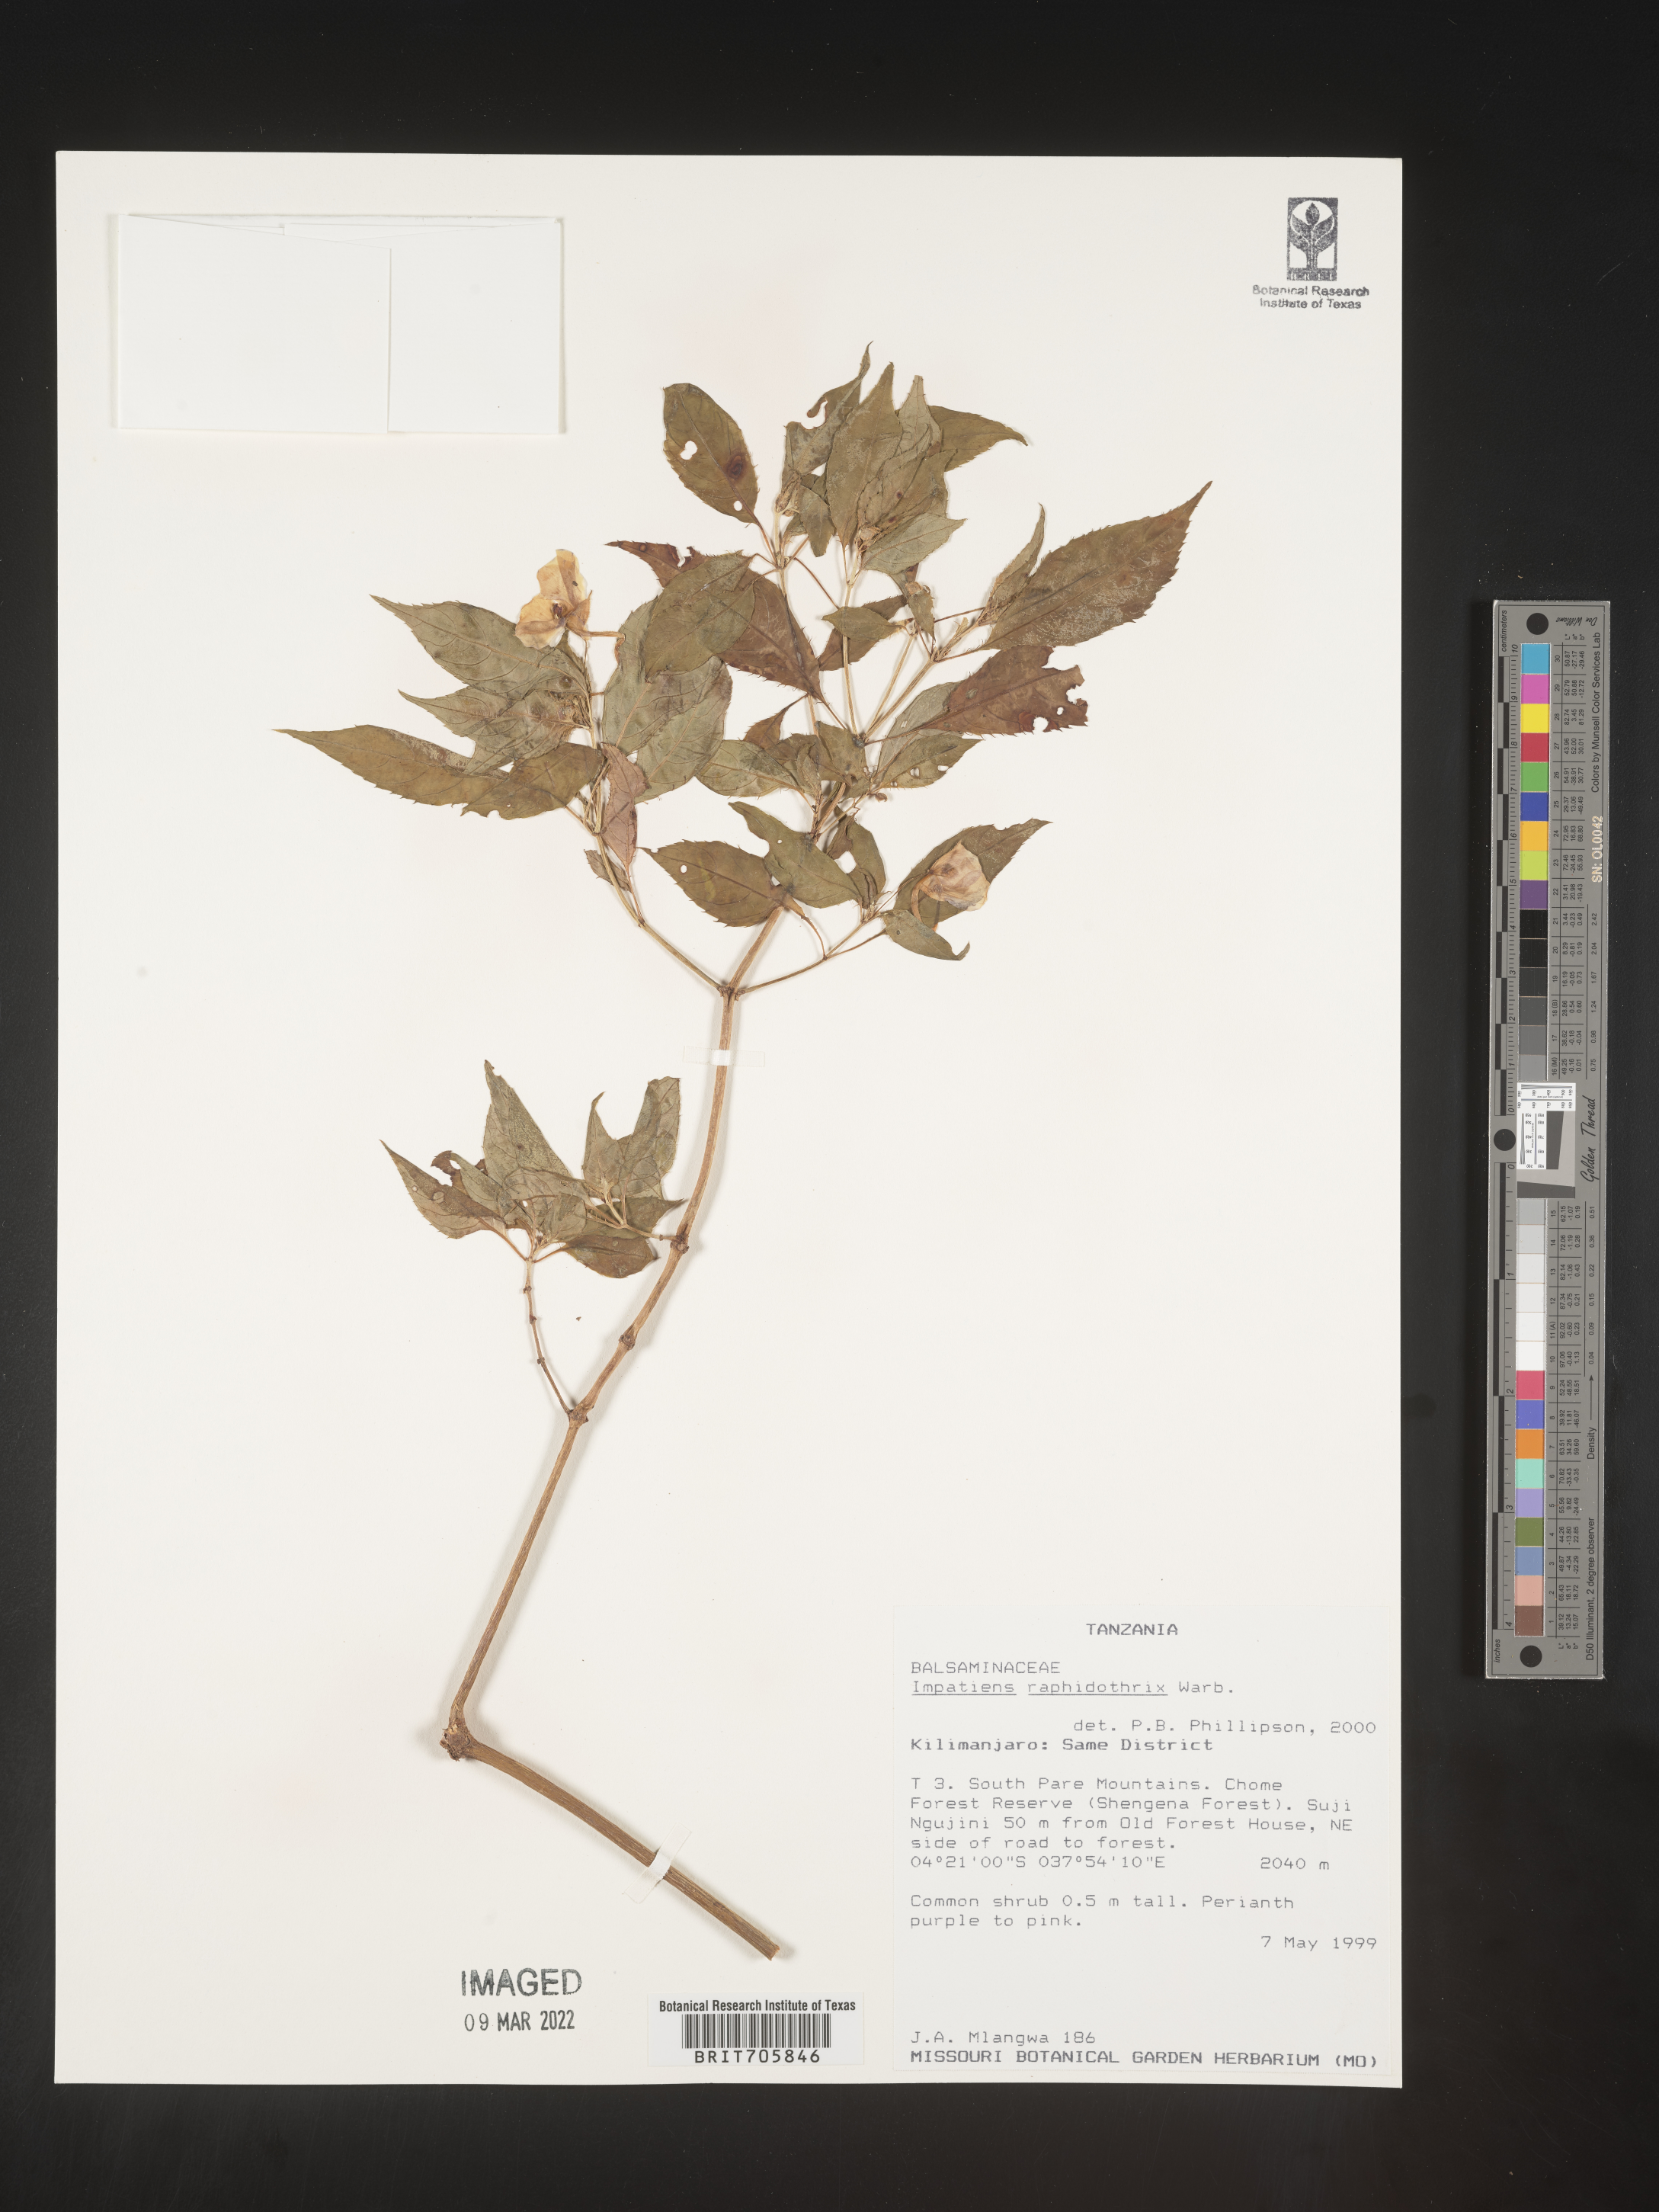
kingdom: Plantae
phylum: Tracheophyta
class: Magnoliopsida
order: Ericales
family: Balsaminaceae
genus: Impatiens
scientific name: Impatiens
